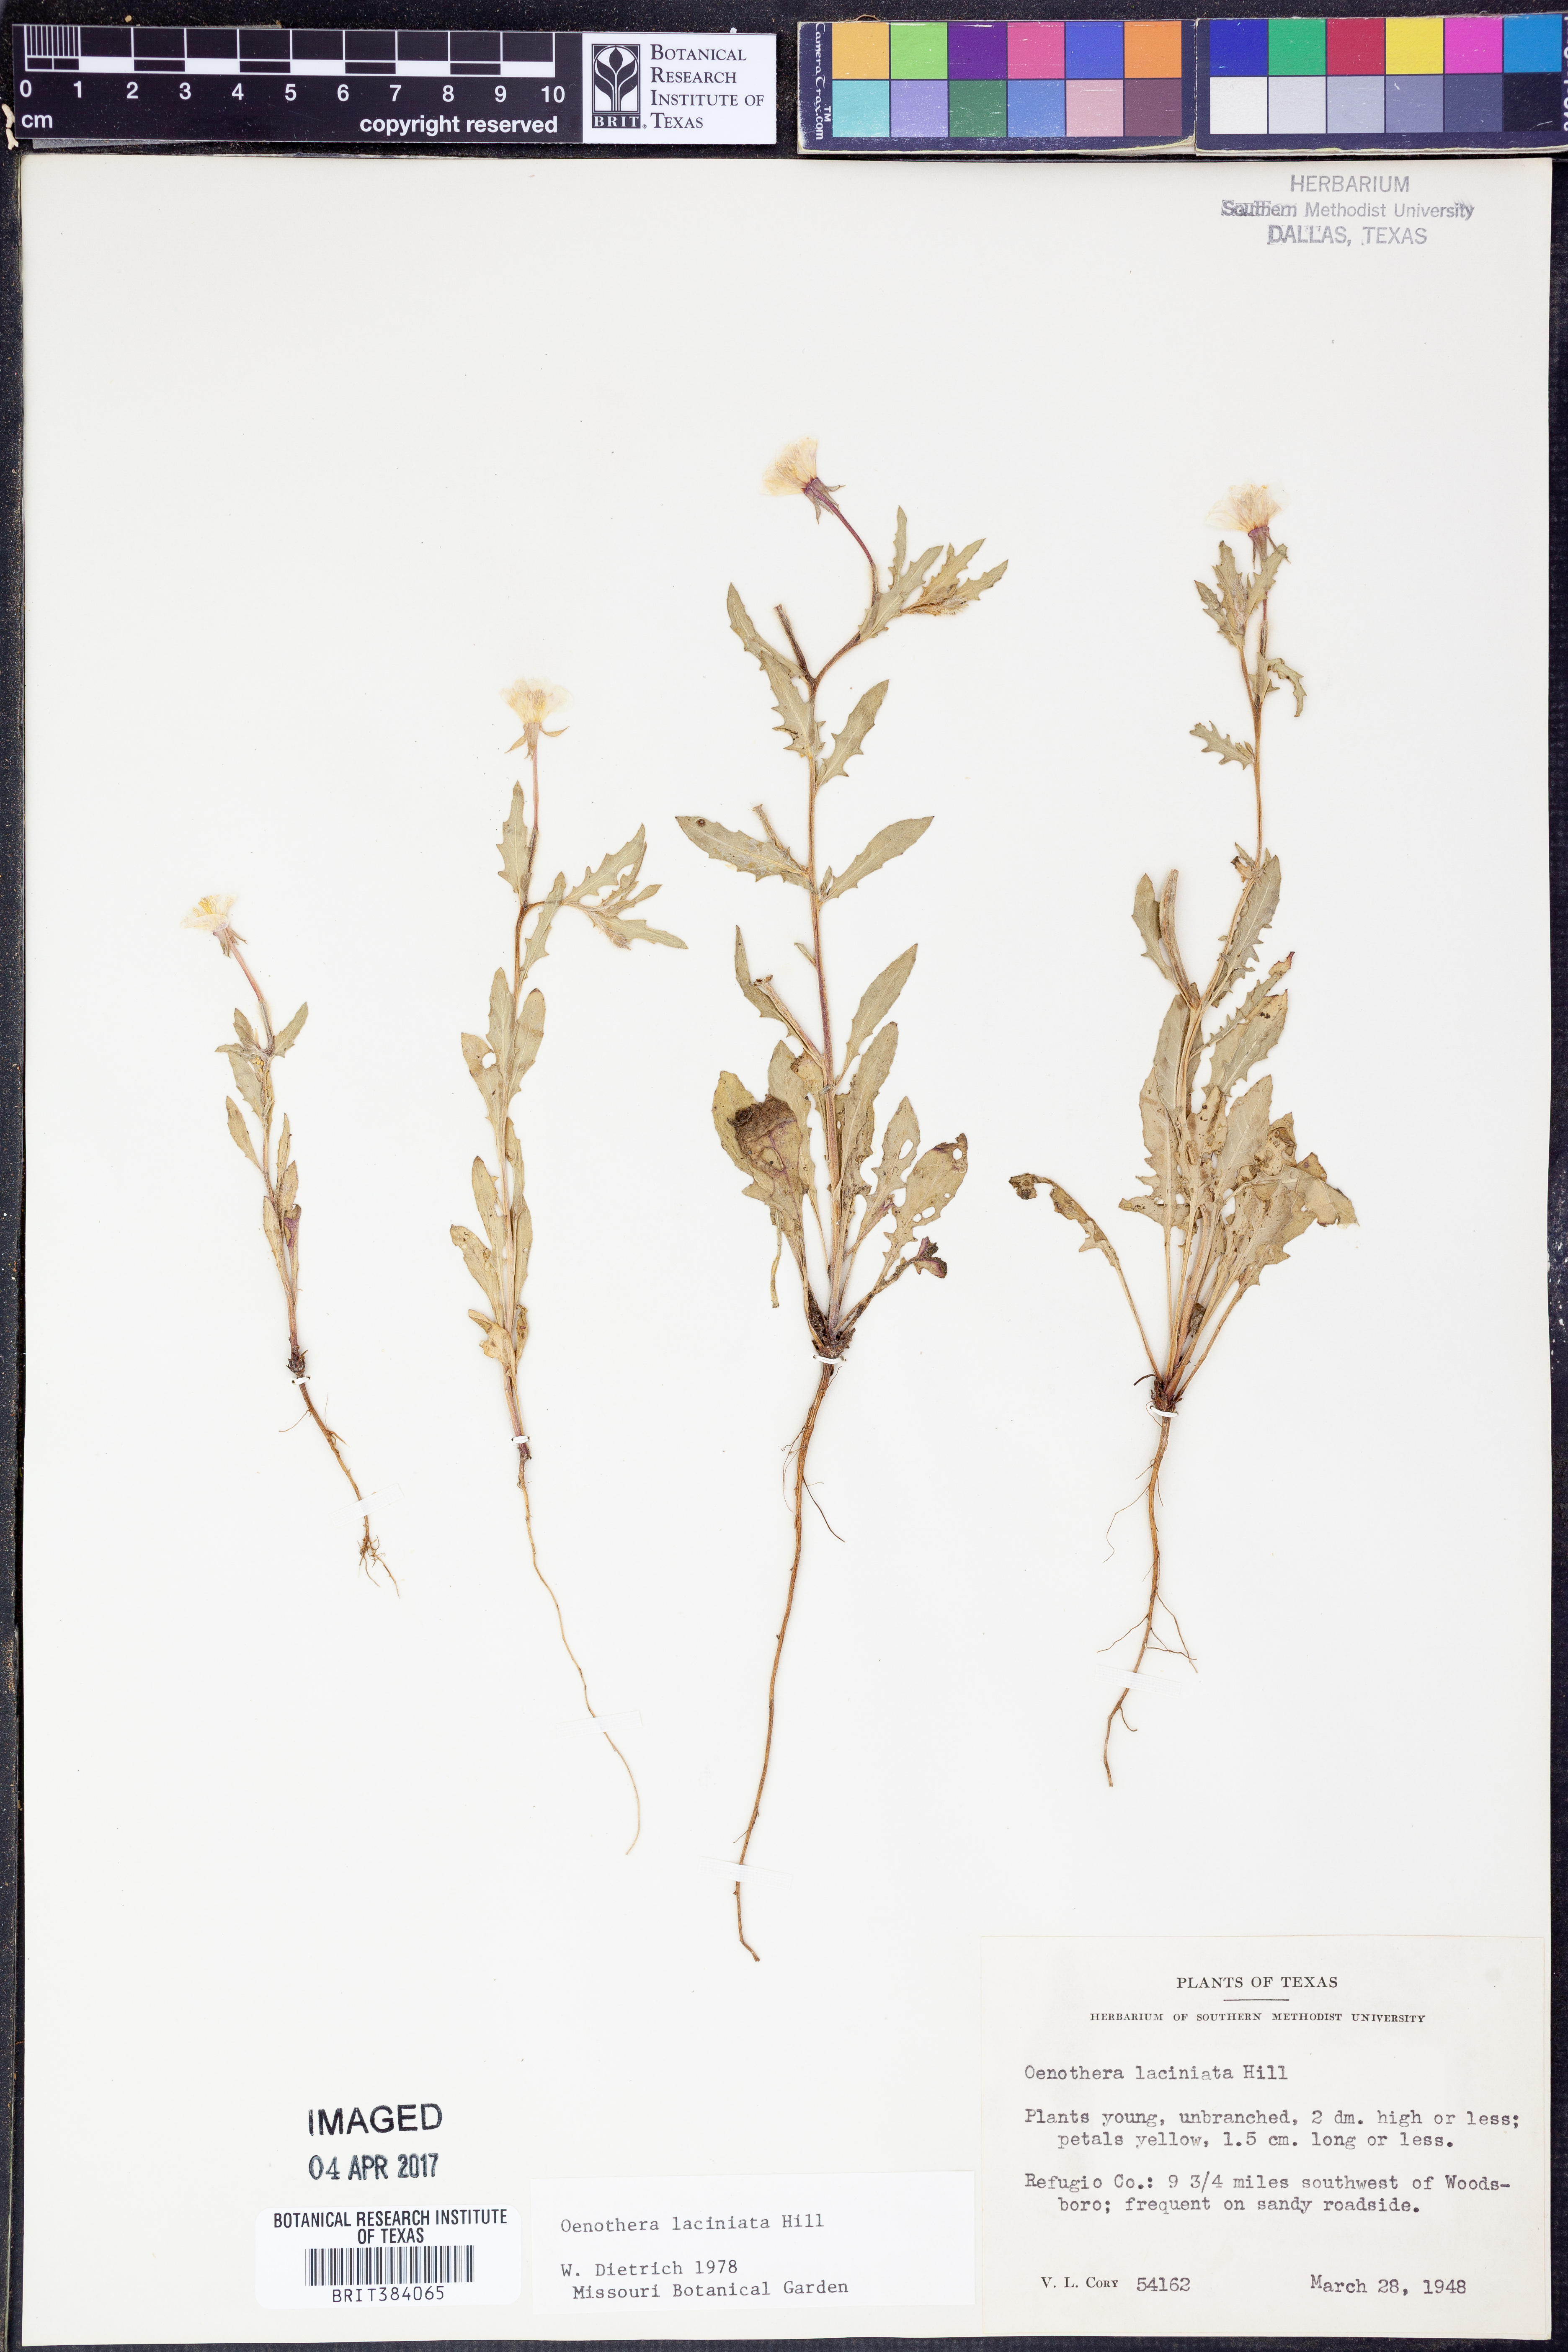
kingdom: Plantae
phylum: Tracheophyta
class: Magnoliopsida
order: Myrtales
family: Onagraceae
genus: Oenothera
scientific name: Oenothera laciniata
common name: Cut-leaved evening-primrose
